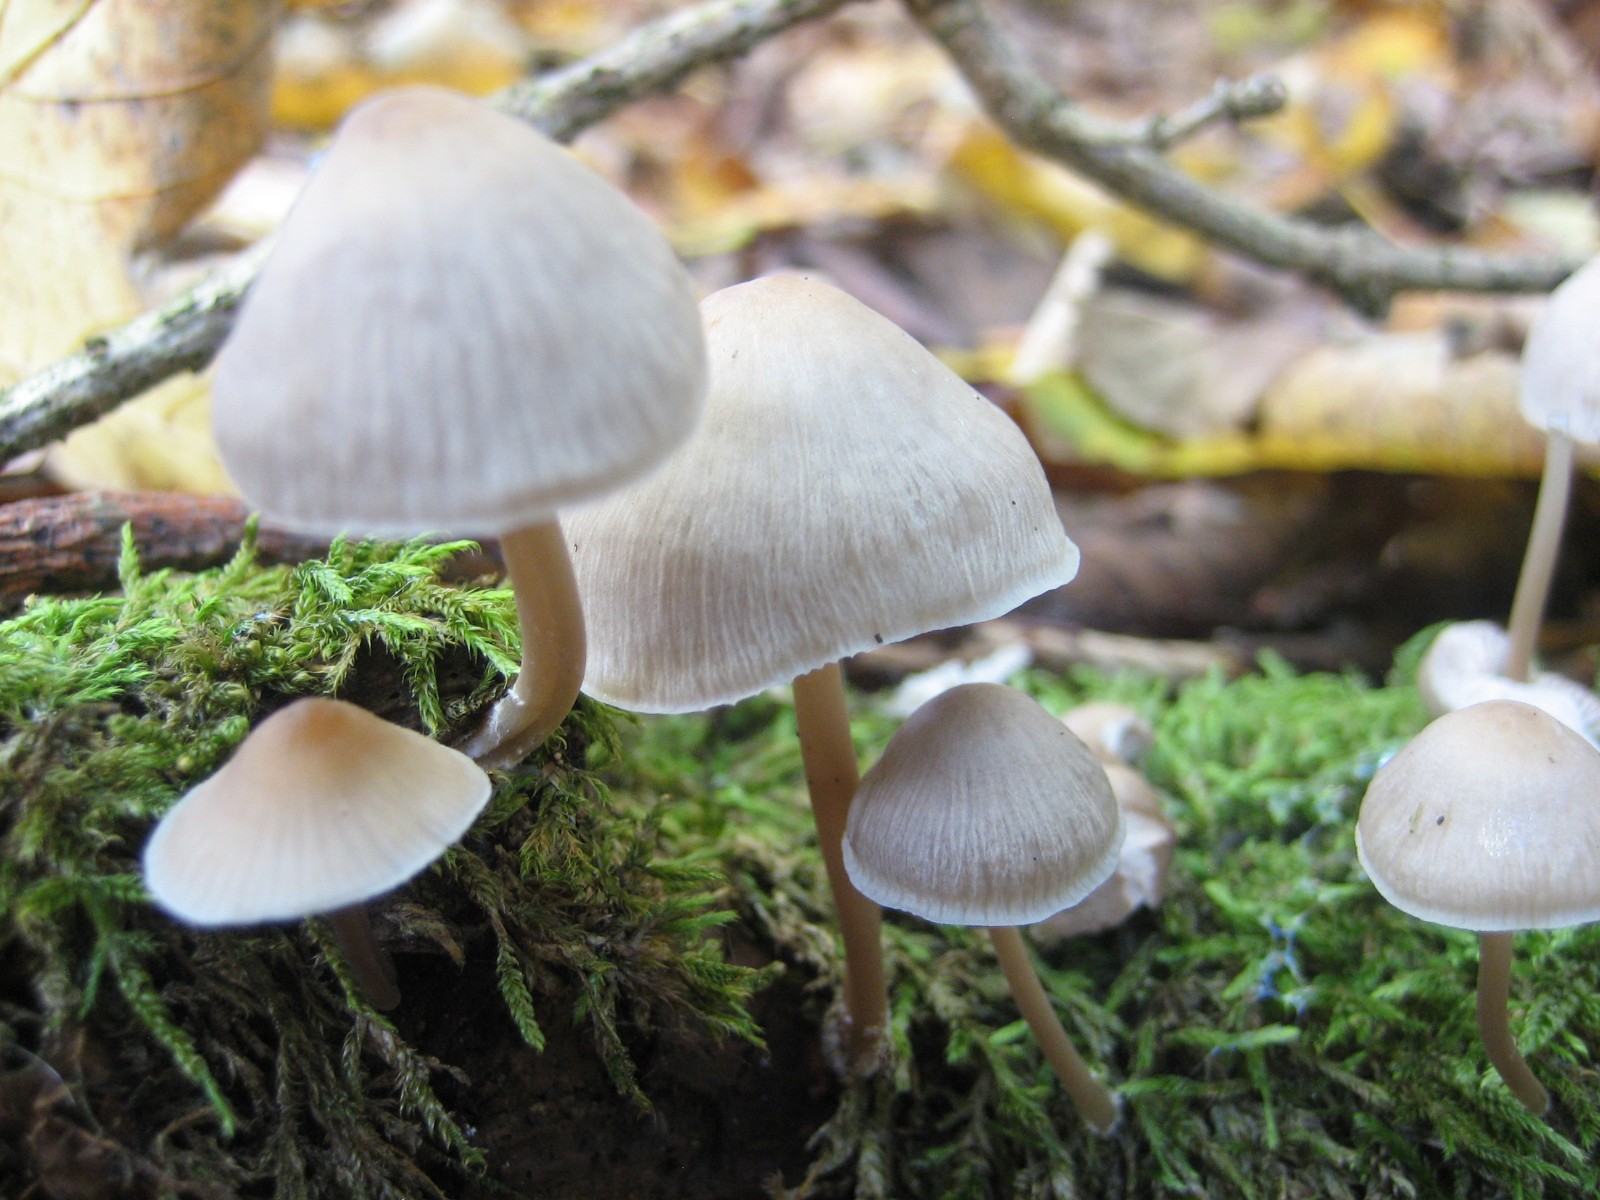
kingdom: Fungi
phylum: Basidiomycota
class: Agaricomycetes
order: Agaricales
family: Mycenaceae
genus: Mycena
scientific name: Mycena galericulata
